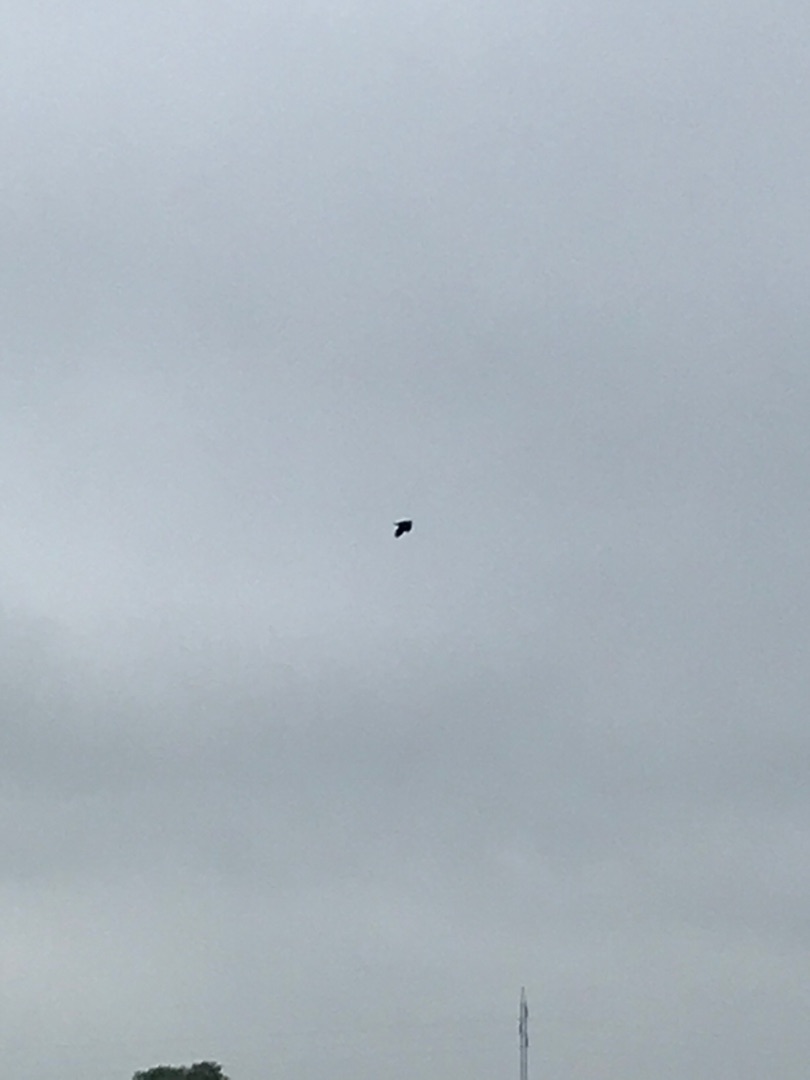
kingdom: Animalia
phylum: Chordata
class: Aves
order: Charadriiformes
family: Charadriidae
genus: Vanellus
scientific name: Vanellus vanellus
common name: Vibe
